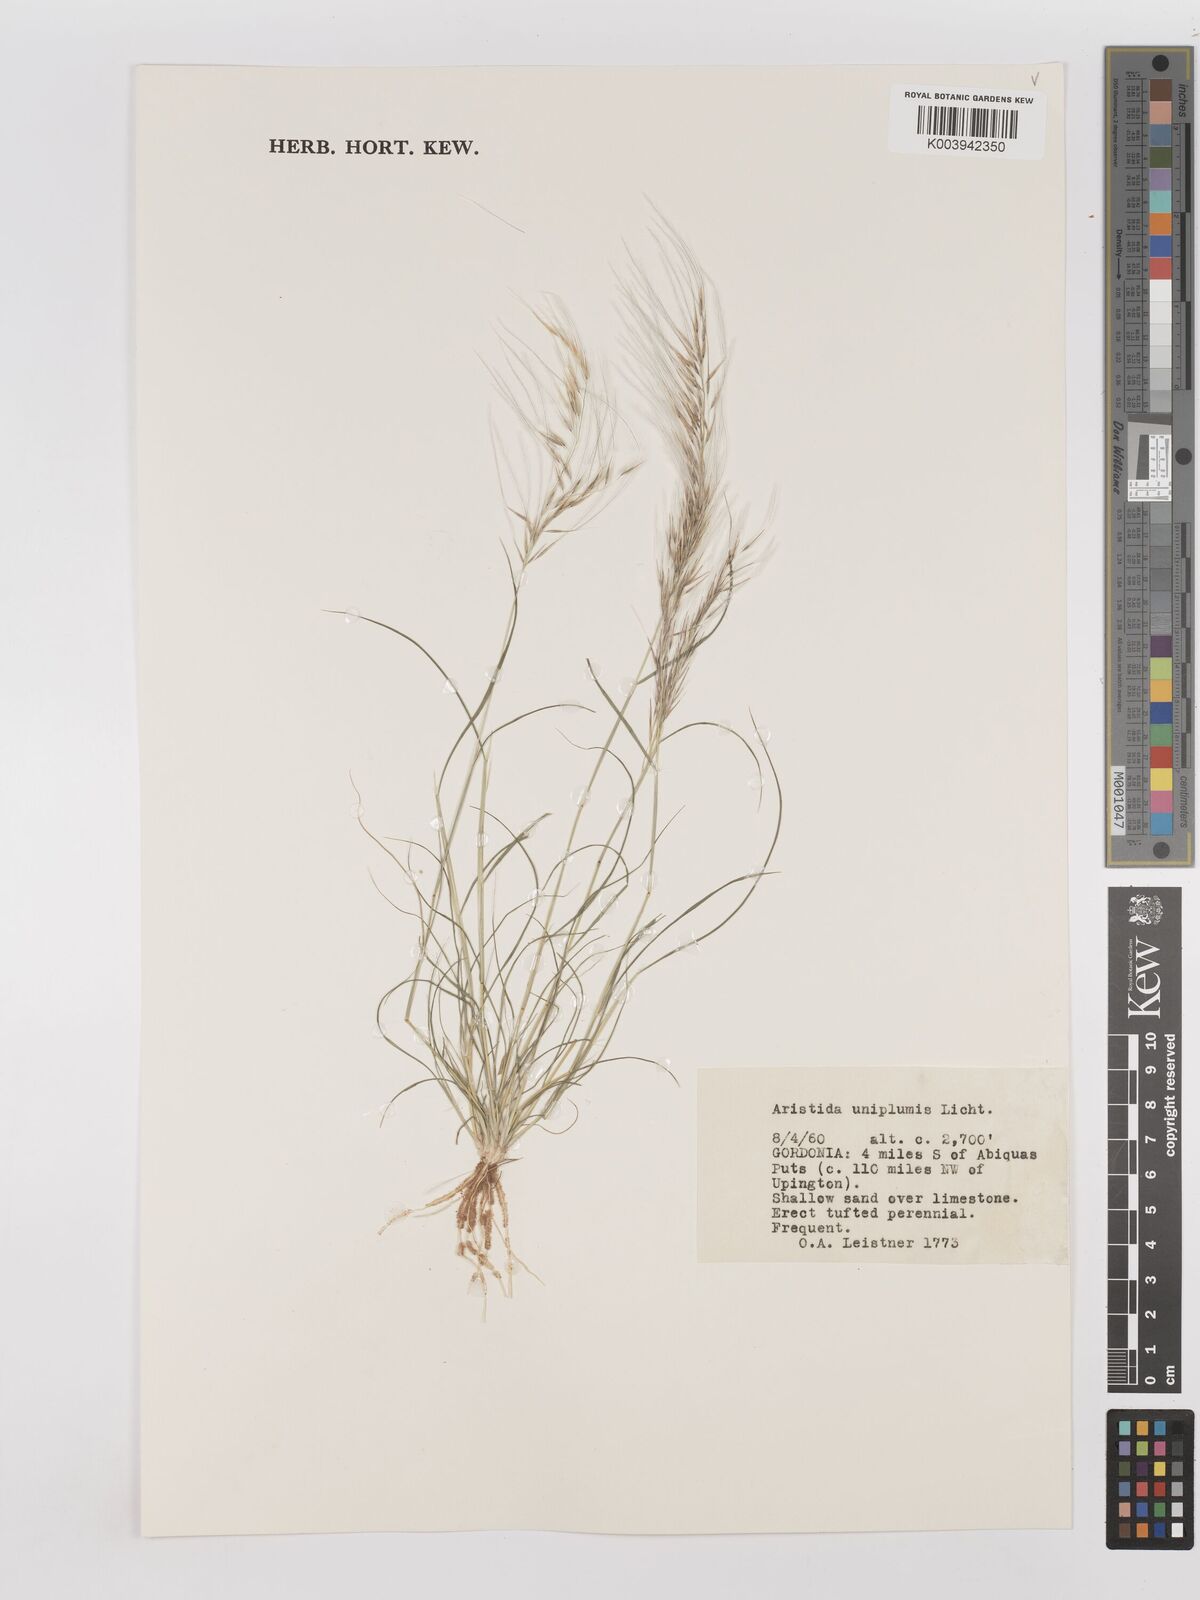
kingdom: Plantae
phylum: Tracheophyta
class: Liliopsida
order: Poales
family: Poaceae
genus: Stipagrostis
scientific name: Stipagrostis uniplumis
